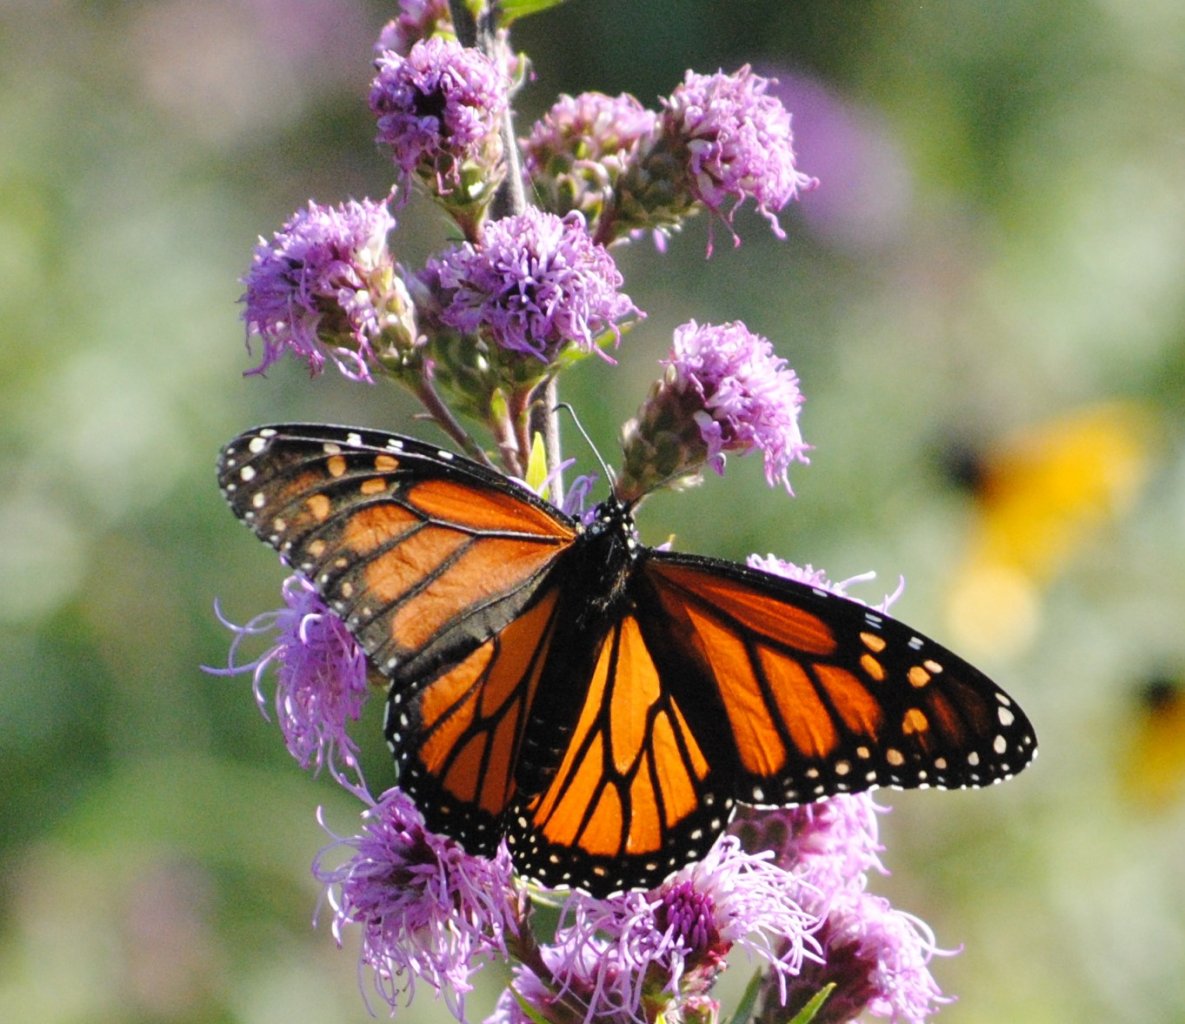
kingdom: Animalia
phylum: Arthropoda
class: Insecta
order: Lepidoptera
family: Nymphalidae
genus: Danaus
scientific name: Danaus plexippus
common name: Monarch
